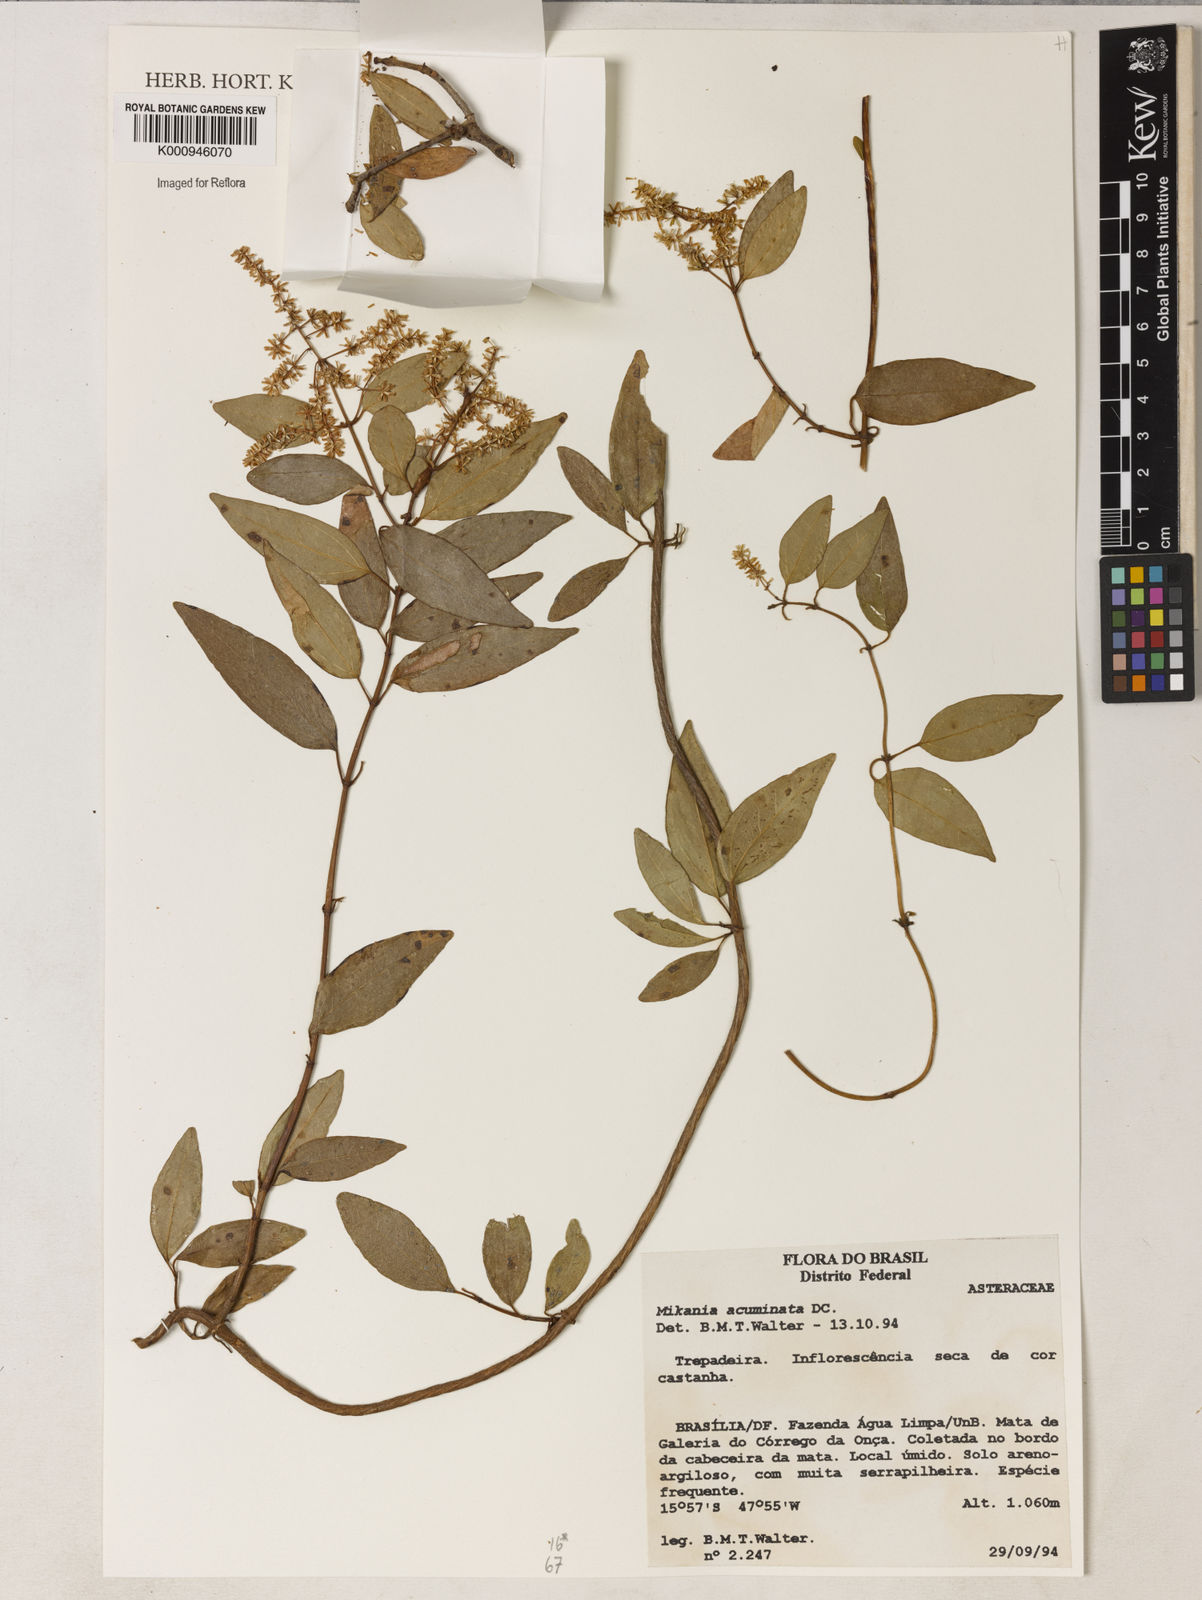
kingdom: Plantae
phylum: Tracheophyta
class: Magnoliopsida
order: Asterales
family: Asteraceae
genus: Mikania
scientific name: Mikania acuminata
